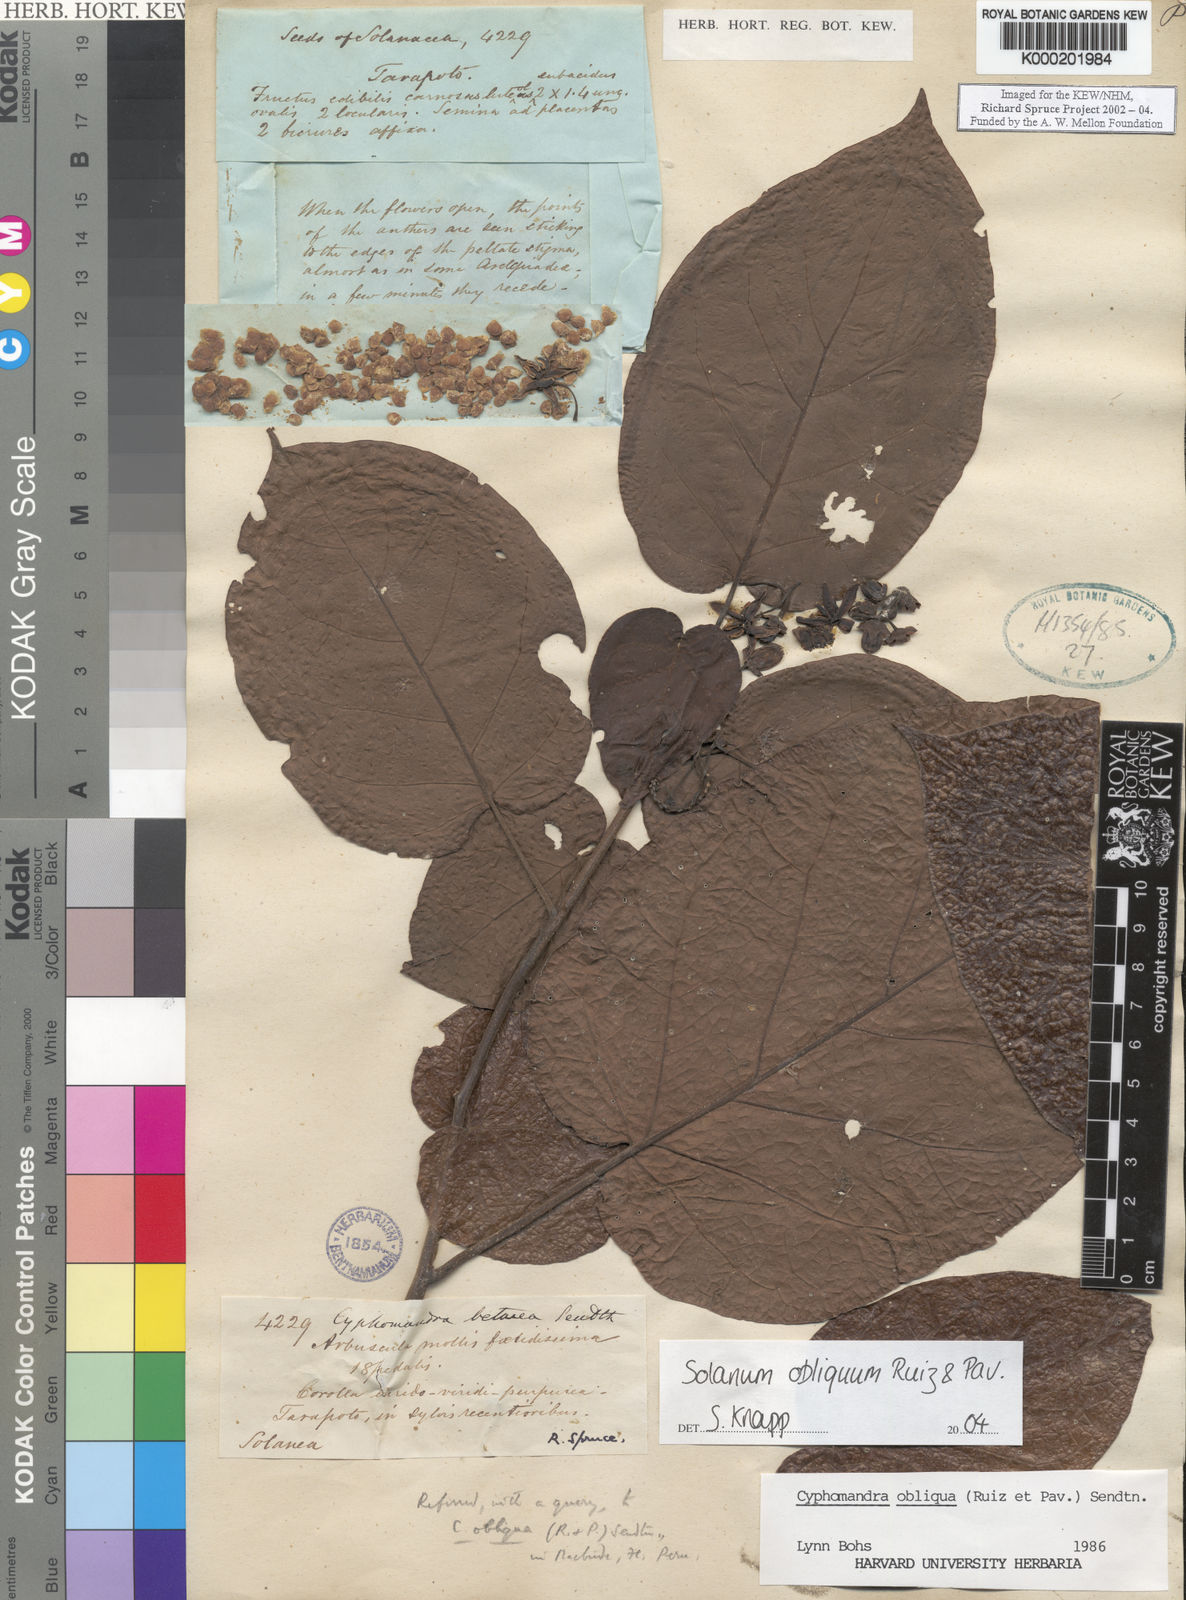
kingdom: Plantae
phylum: Tracheophyta
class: Magnoliopsida
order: Solanales
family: Solanaceae
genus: Solanum
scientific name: Solanum obliquum
